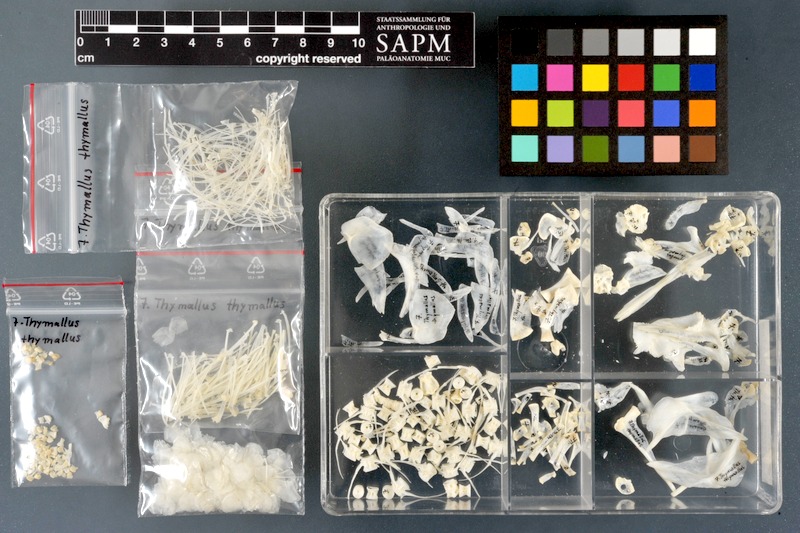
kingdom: Animalia
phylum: Chordata
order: Salmoniformes
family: Salmonidae
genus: Thymallus
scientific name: Thymallus thymallus
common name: Grayling
